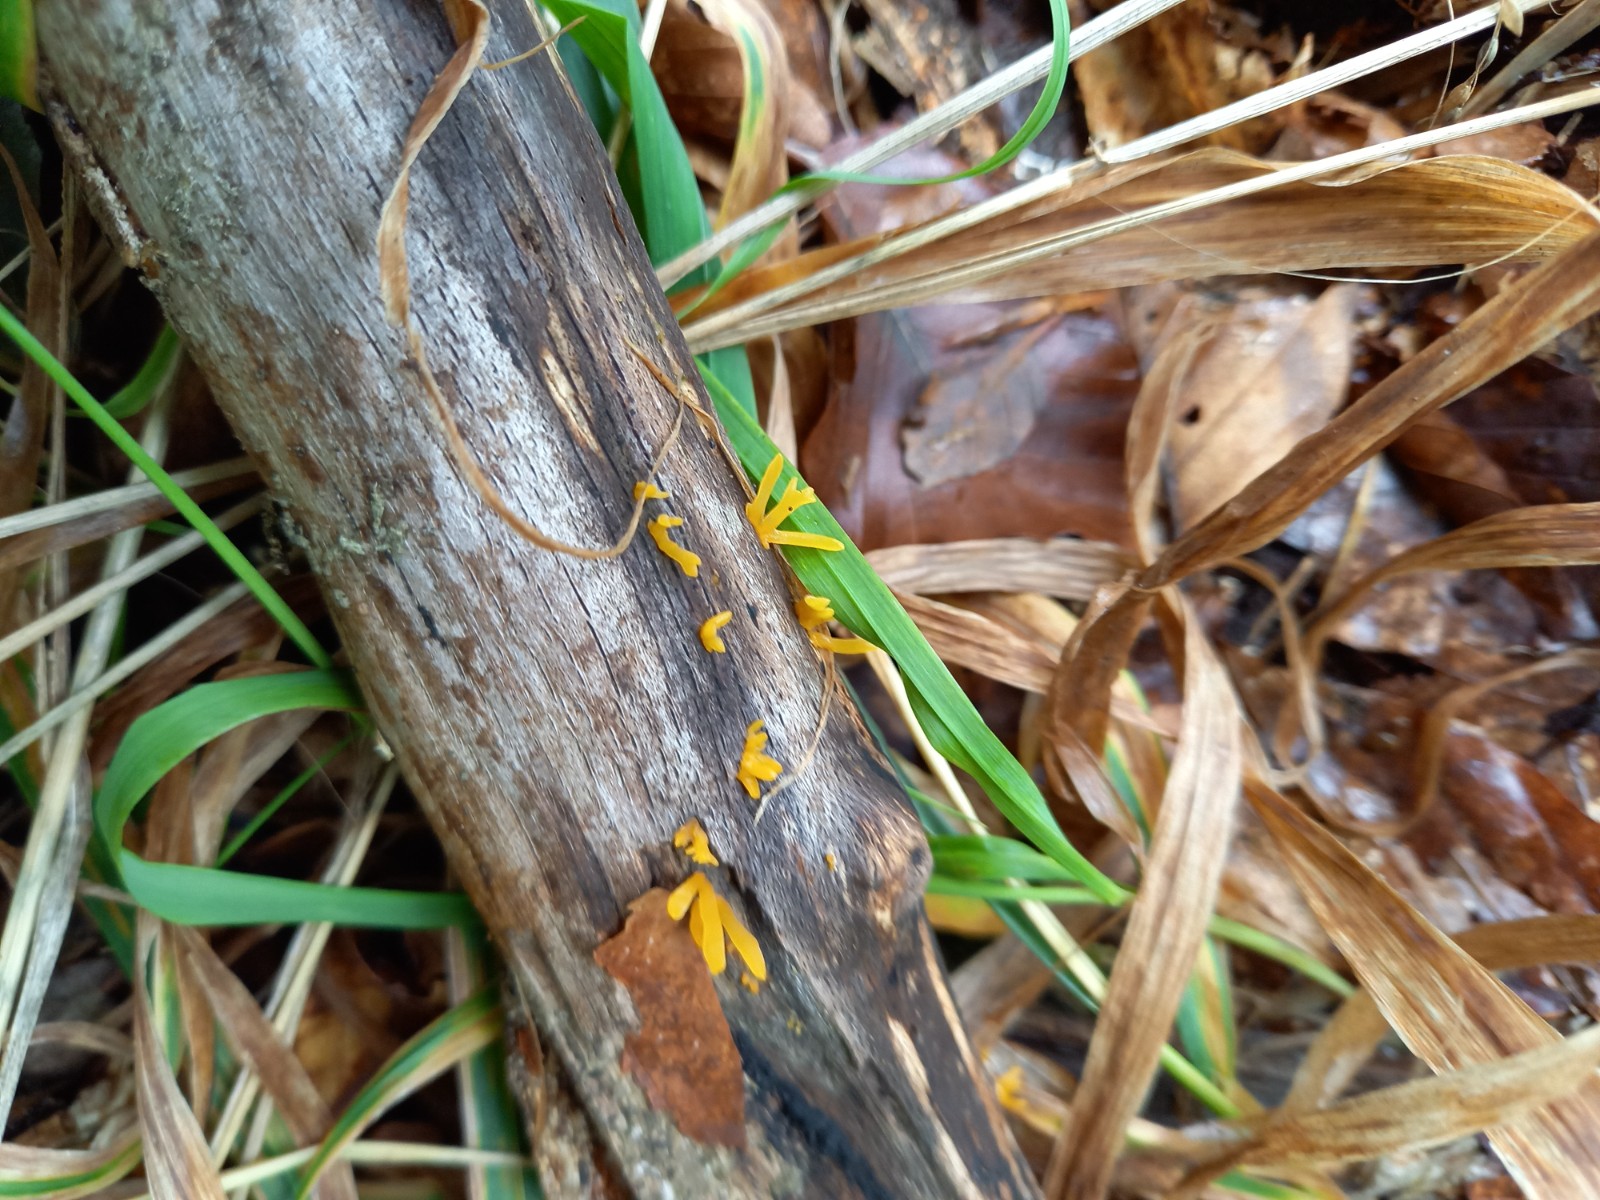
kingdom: Fungi
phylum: Basidiomycota
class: Dacrymycetes
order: Dacrymycetales
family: Dacrymycetaceae
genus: Calocera
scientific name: Calocera cornea
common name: liden guldgaffel
